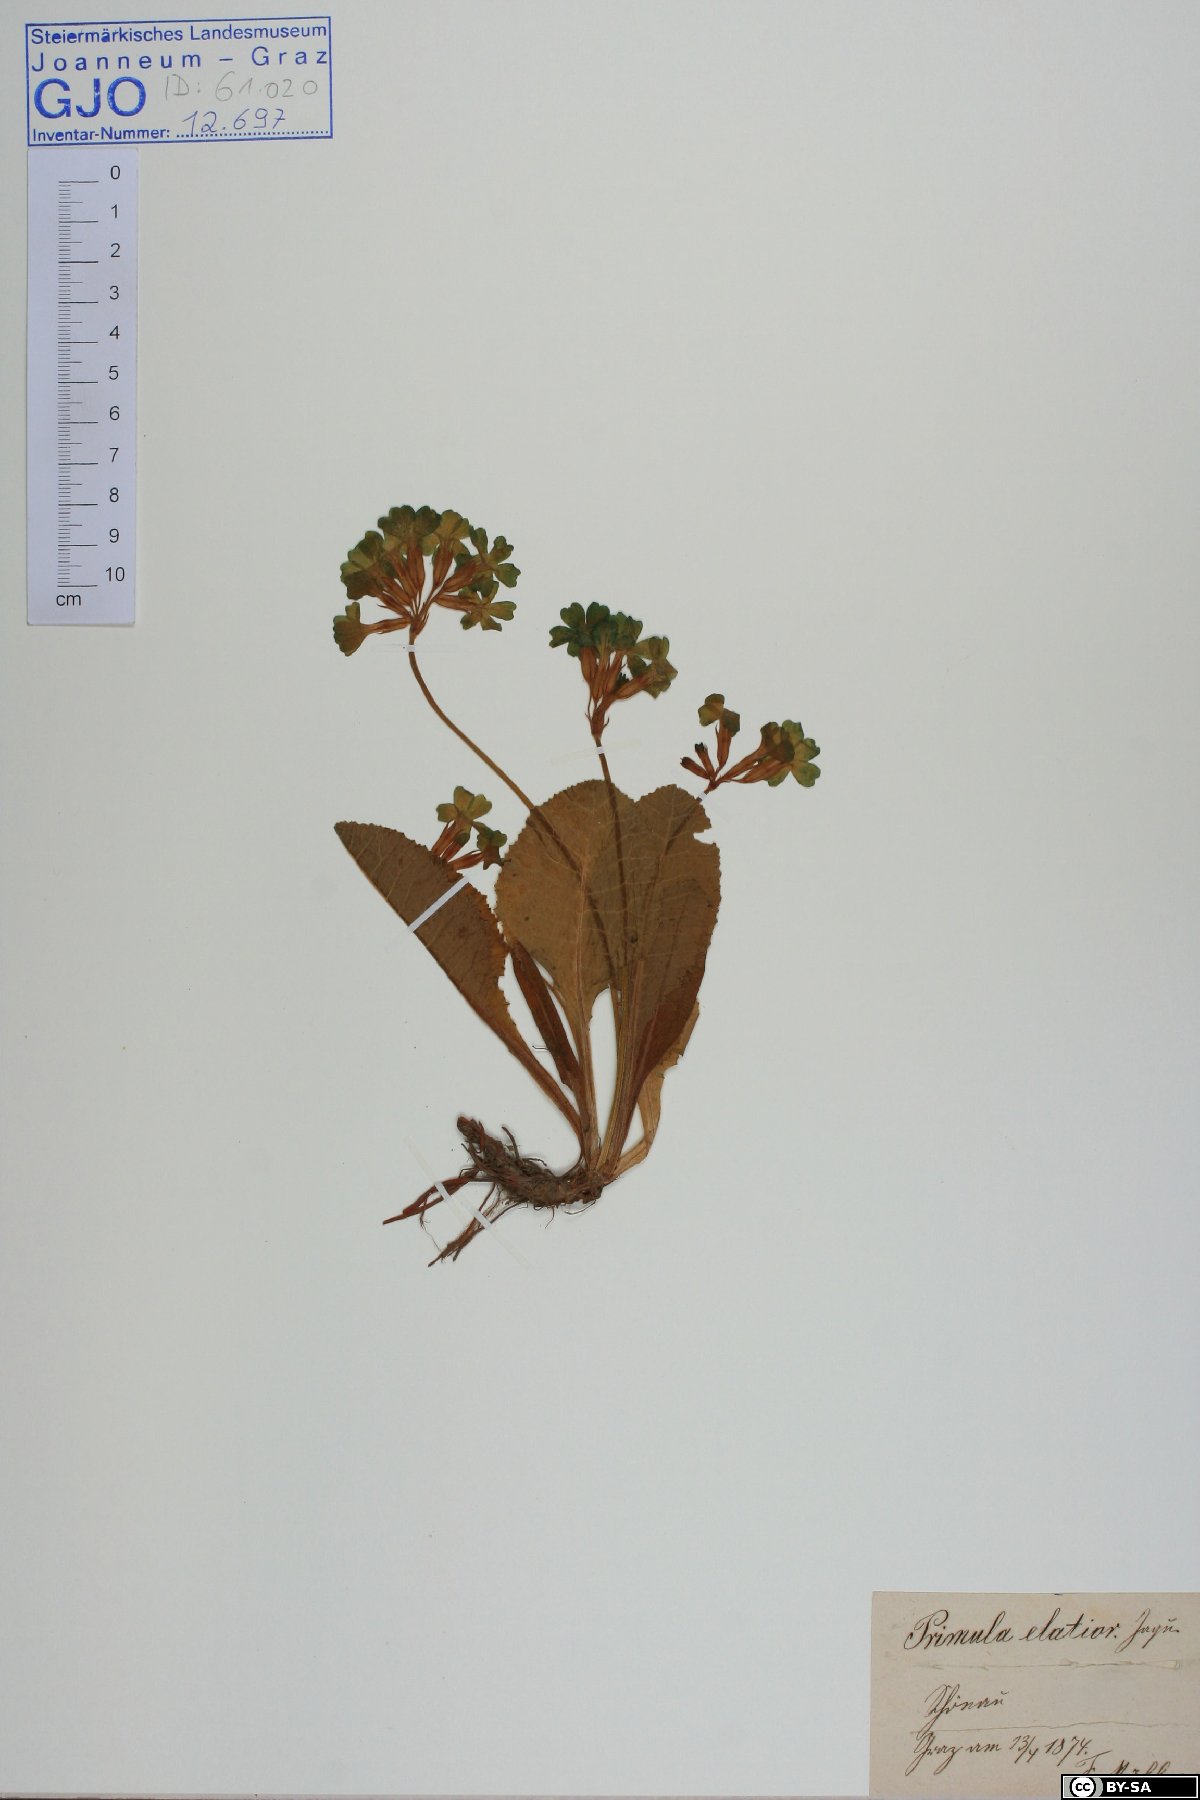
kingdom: Plantae
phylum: Tracheophyta
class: Magnoliopsida
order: Ericales
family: Primulaceae
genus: Primula
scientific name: Primula elatior
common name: Oxlip
